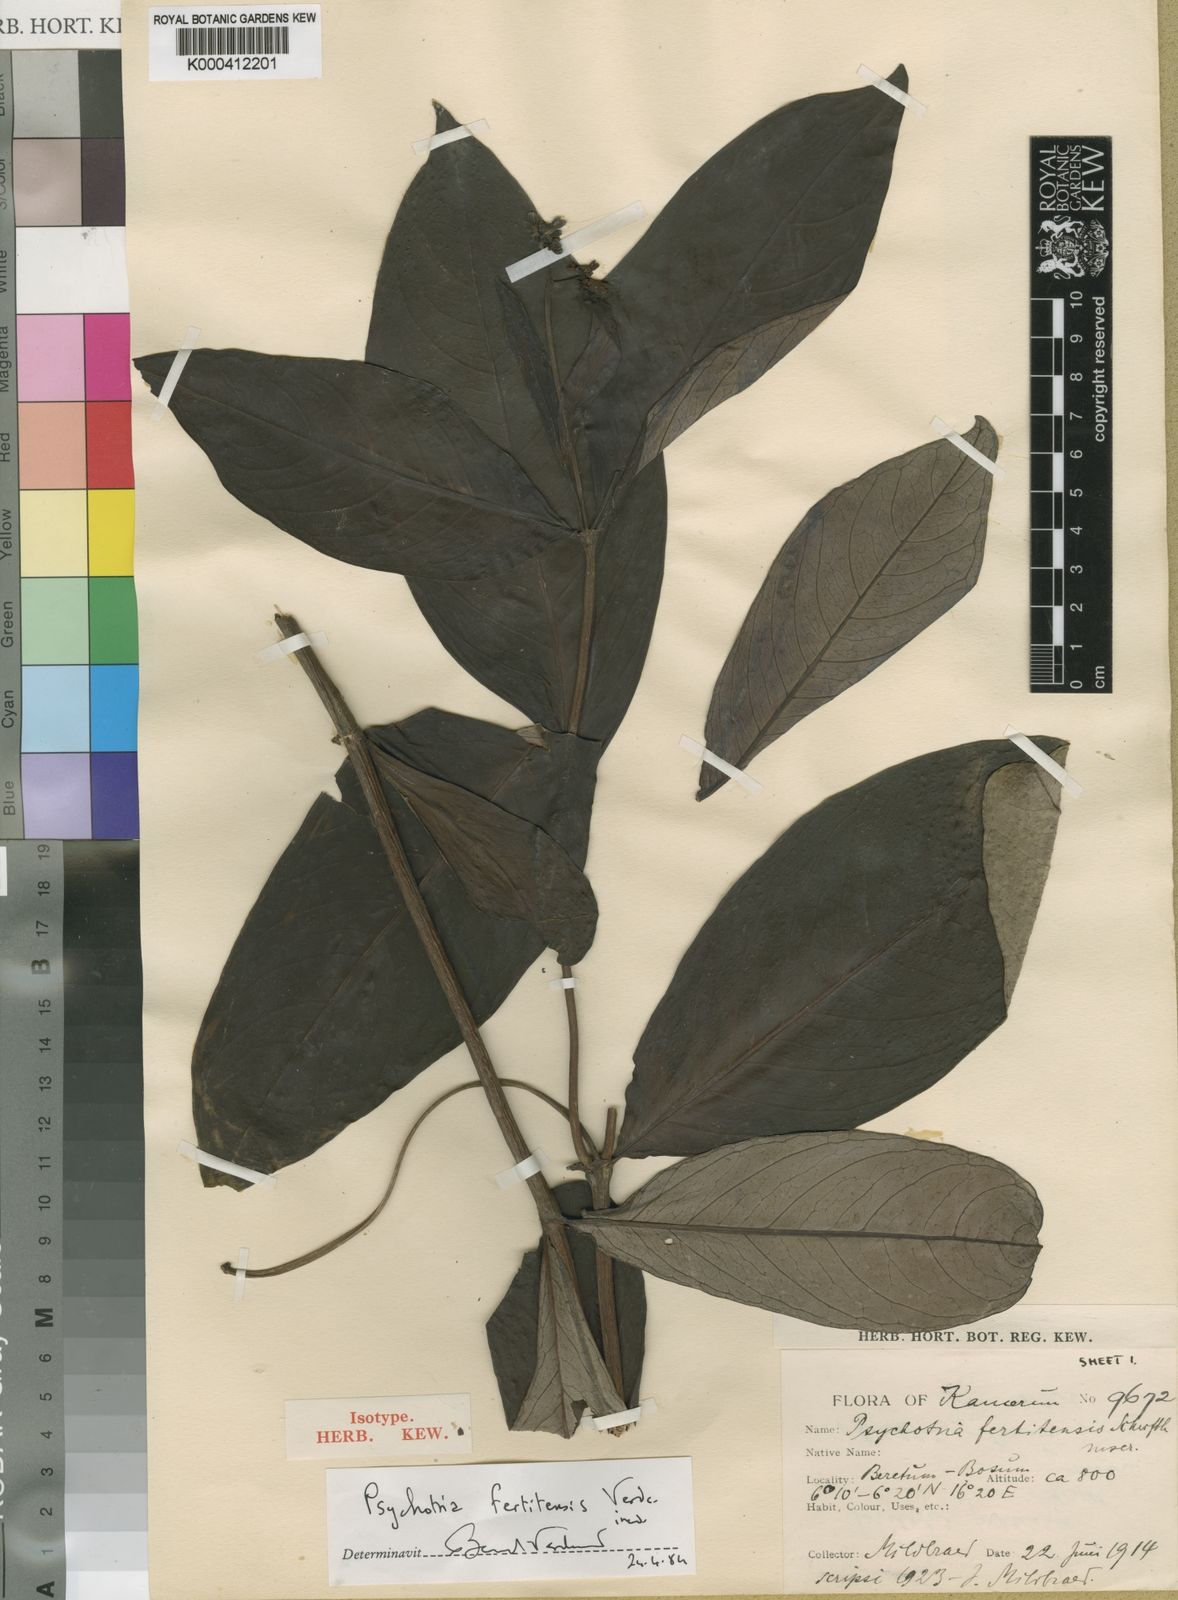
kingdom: Plantae
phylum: Tracheophyta
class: Magnoliopsida
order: Gentianales
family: Rubiaceae
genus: Psychotria
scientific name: Psychotria moninensis
